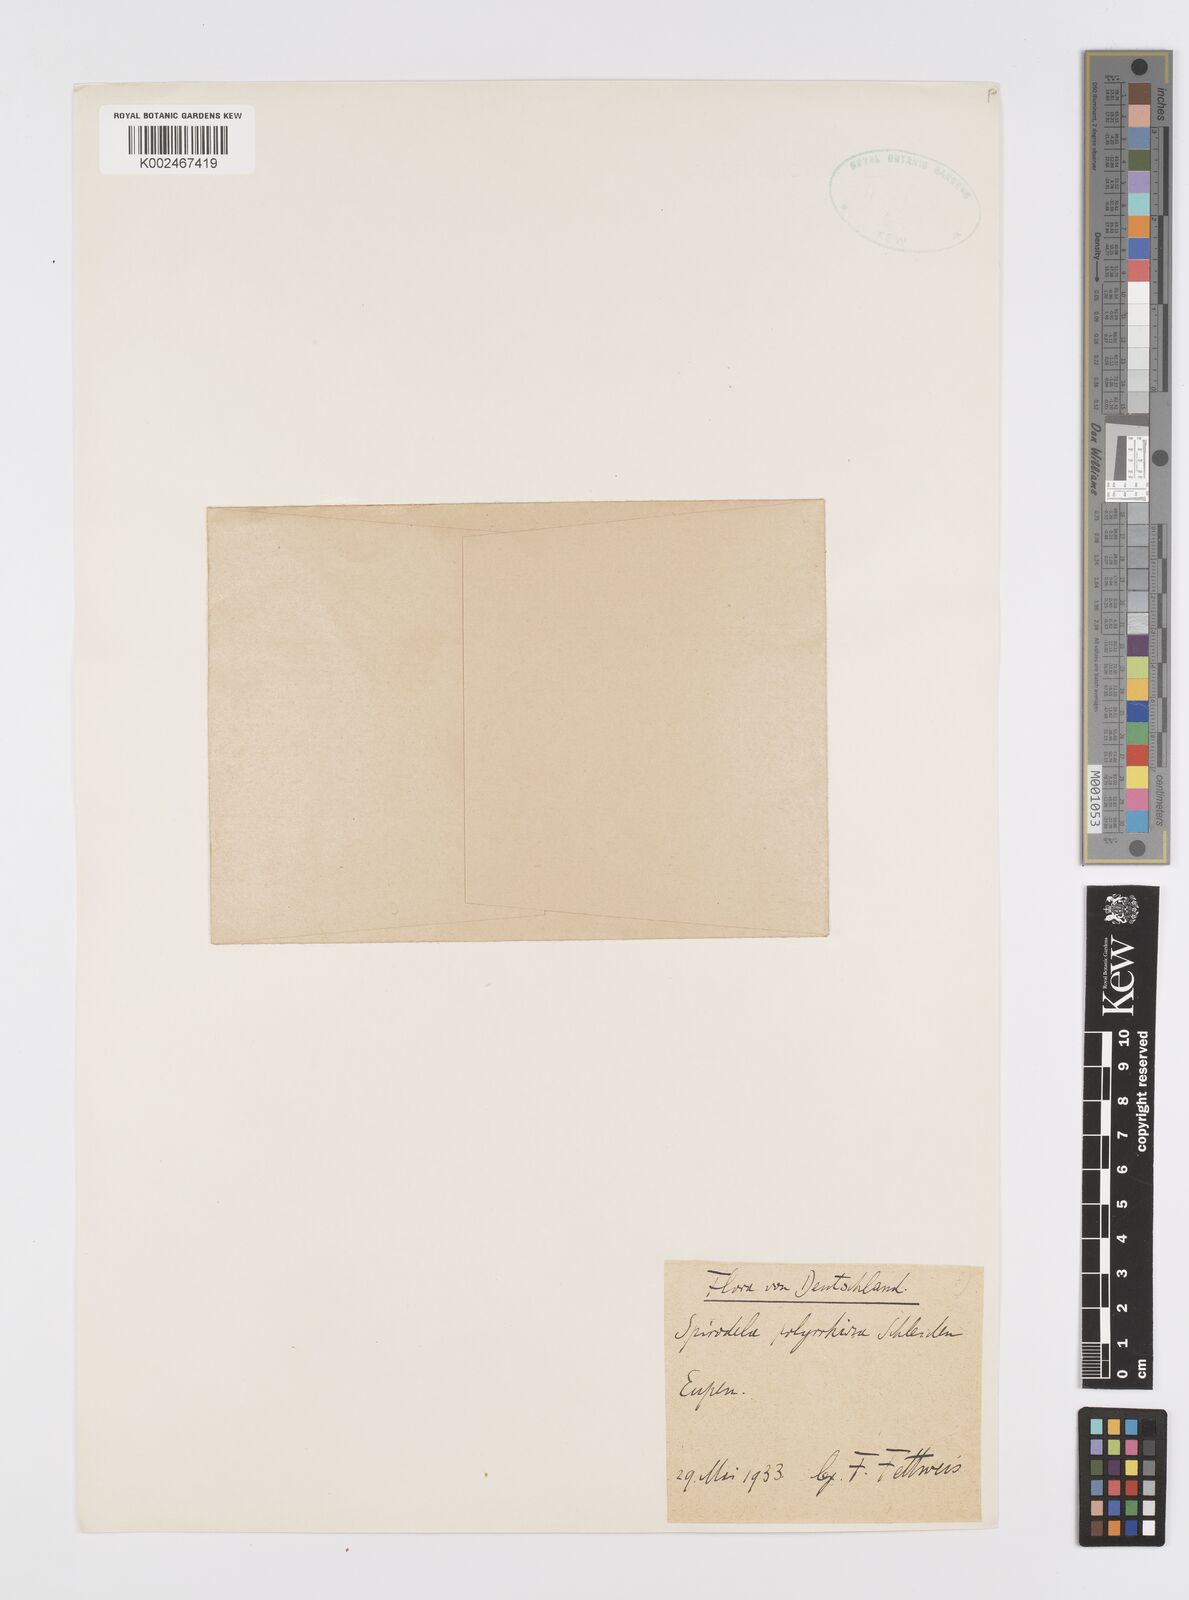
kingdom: Plantae
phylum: Tracheophyta
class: Liliopsida
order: Alismatales
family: Araceae
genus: Spirodela
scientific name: Spirodela polyrhiza
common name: Great duckweed
